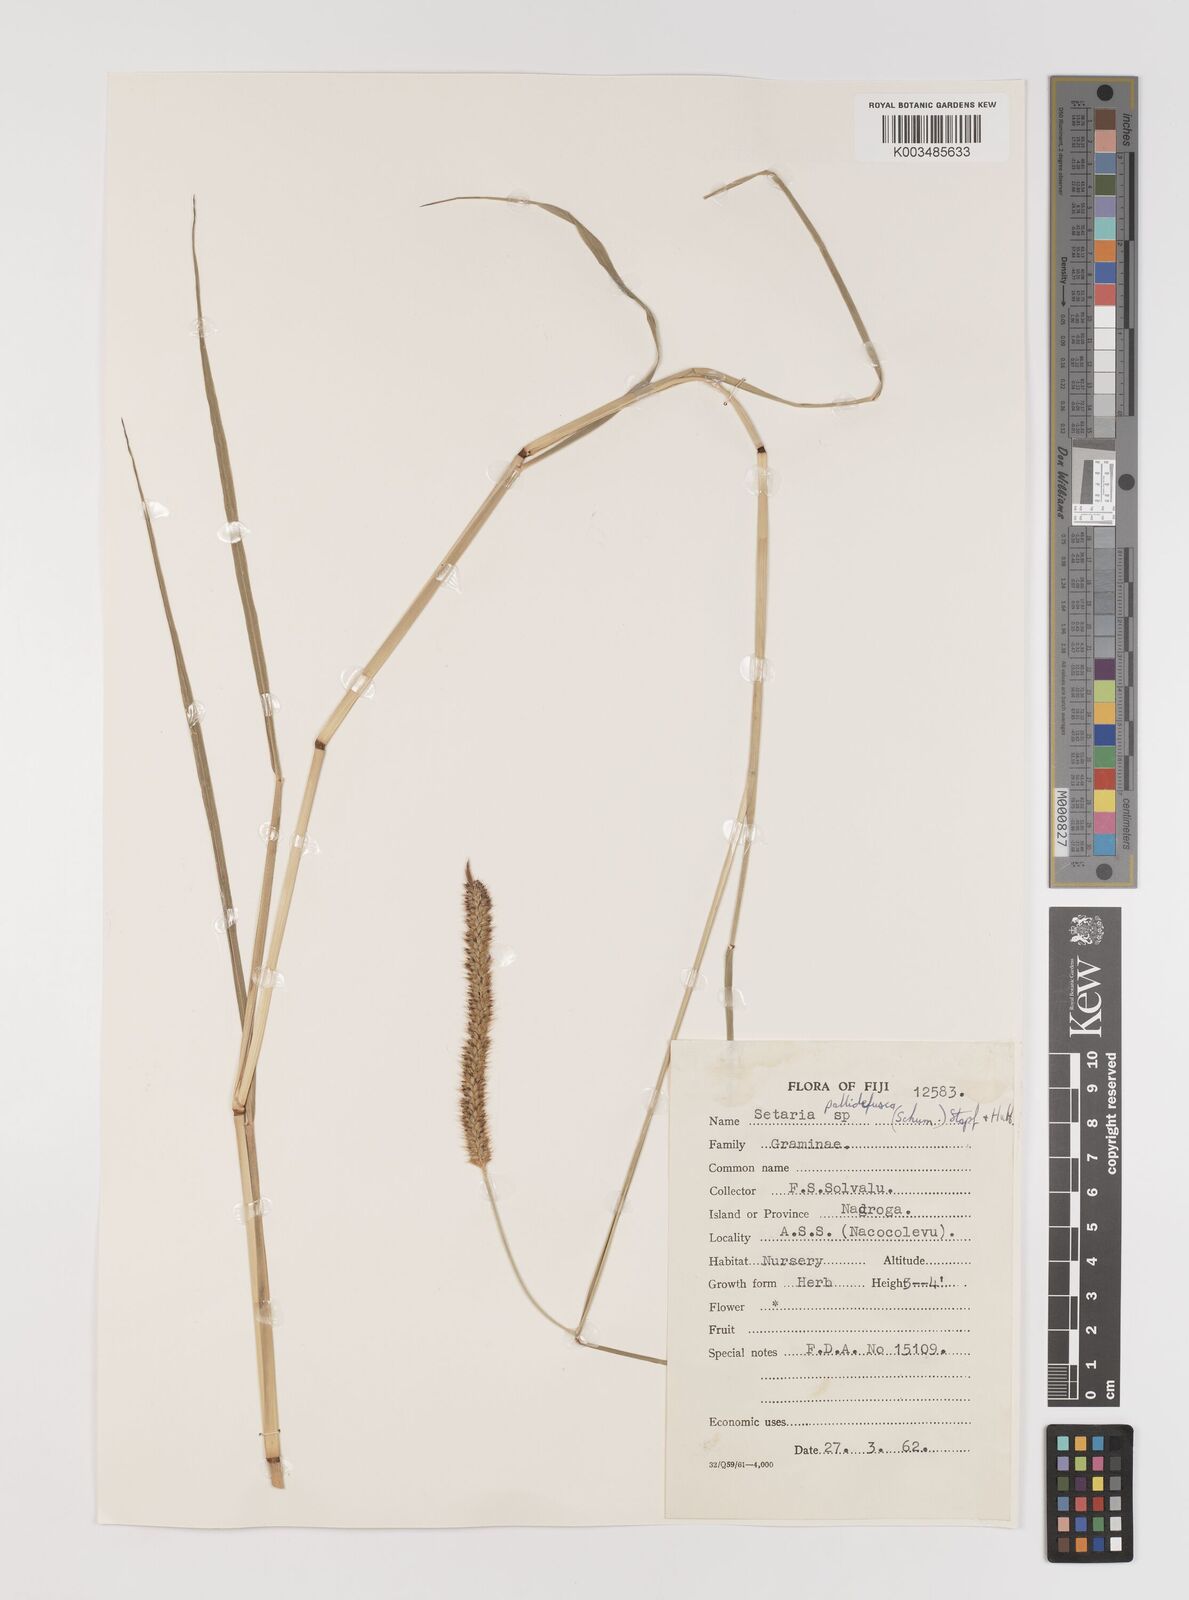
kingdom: Plantae
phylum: Tracheophyta
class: Liliopsida
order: Poales
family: Poaceae
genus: Setaria
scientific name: Setaria pumila
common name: Yellow bristle-grass
